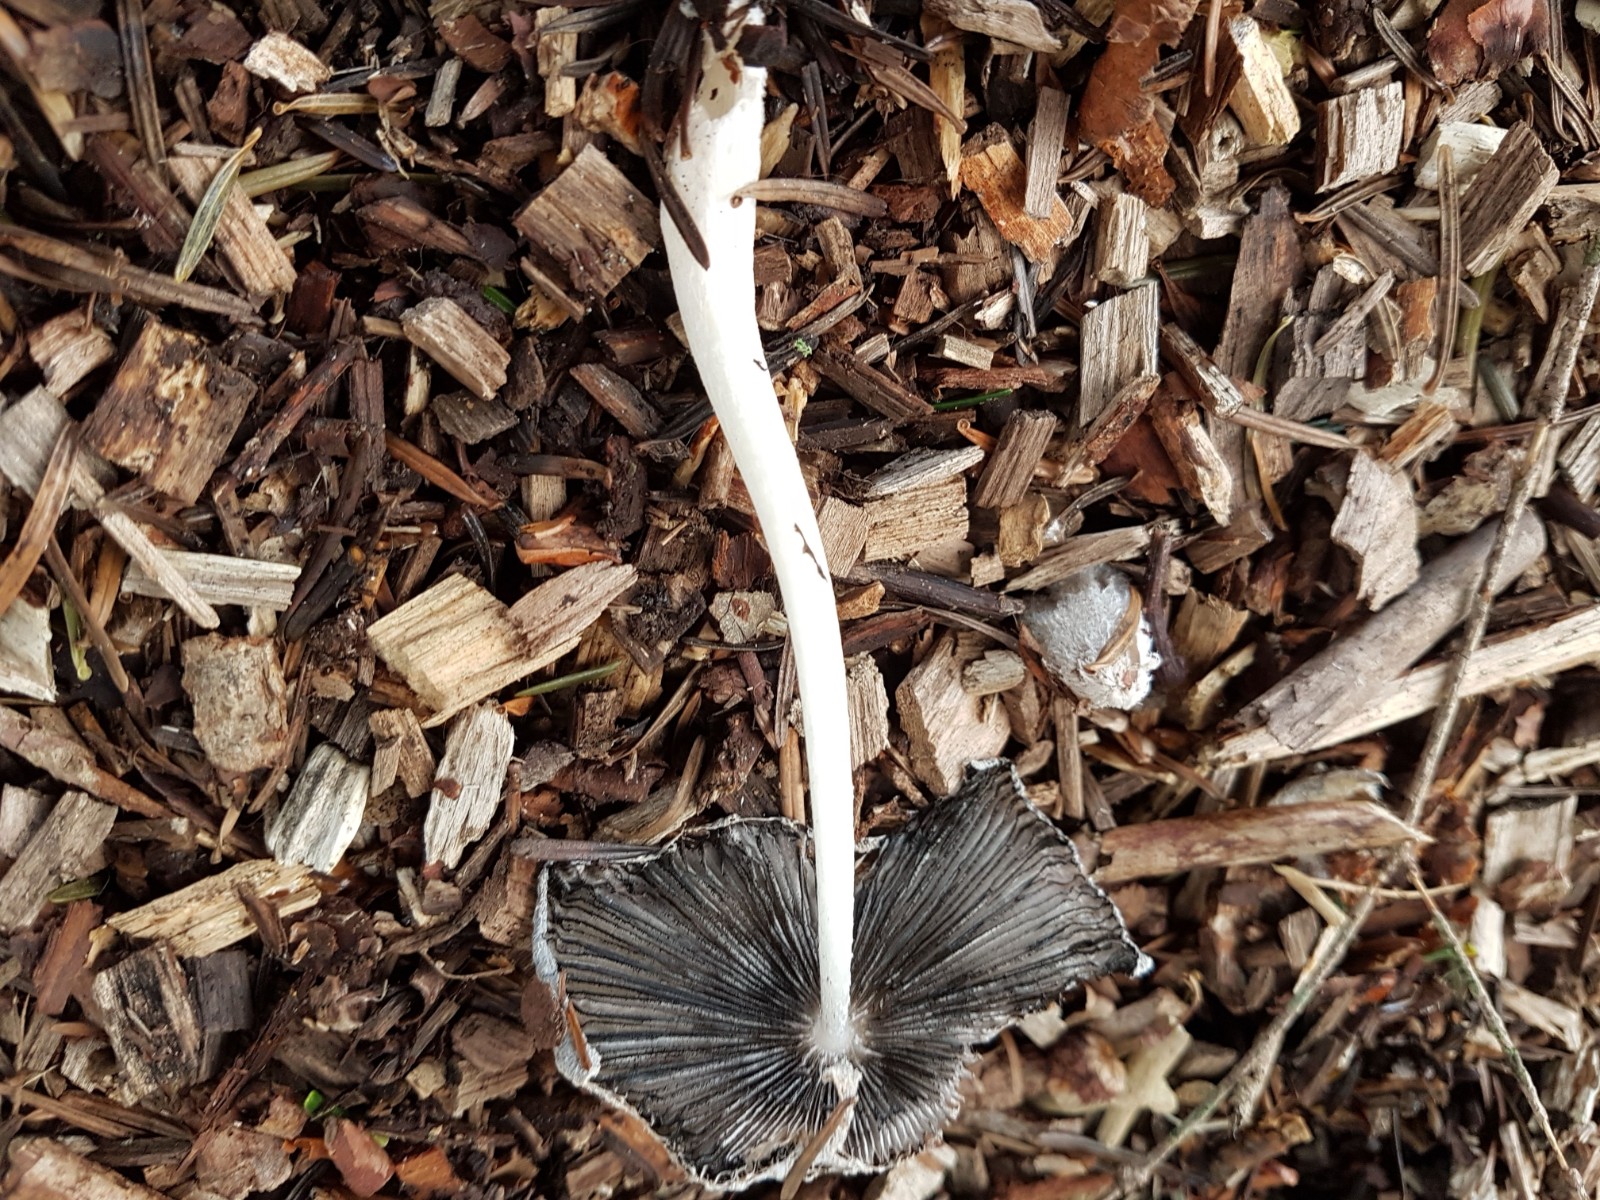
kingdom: Fungi
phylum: Basidiomycota
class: Agaricomycetes
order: Agaricales
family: Psathyrellaceae
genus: Coprinopsis
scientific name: Coprinopsis lagopus
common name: dunstokket blækhat
